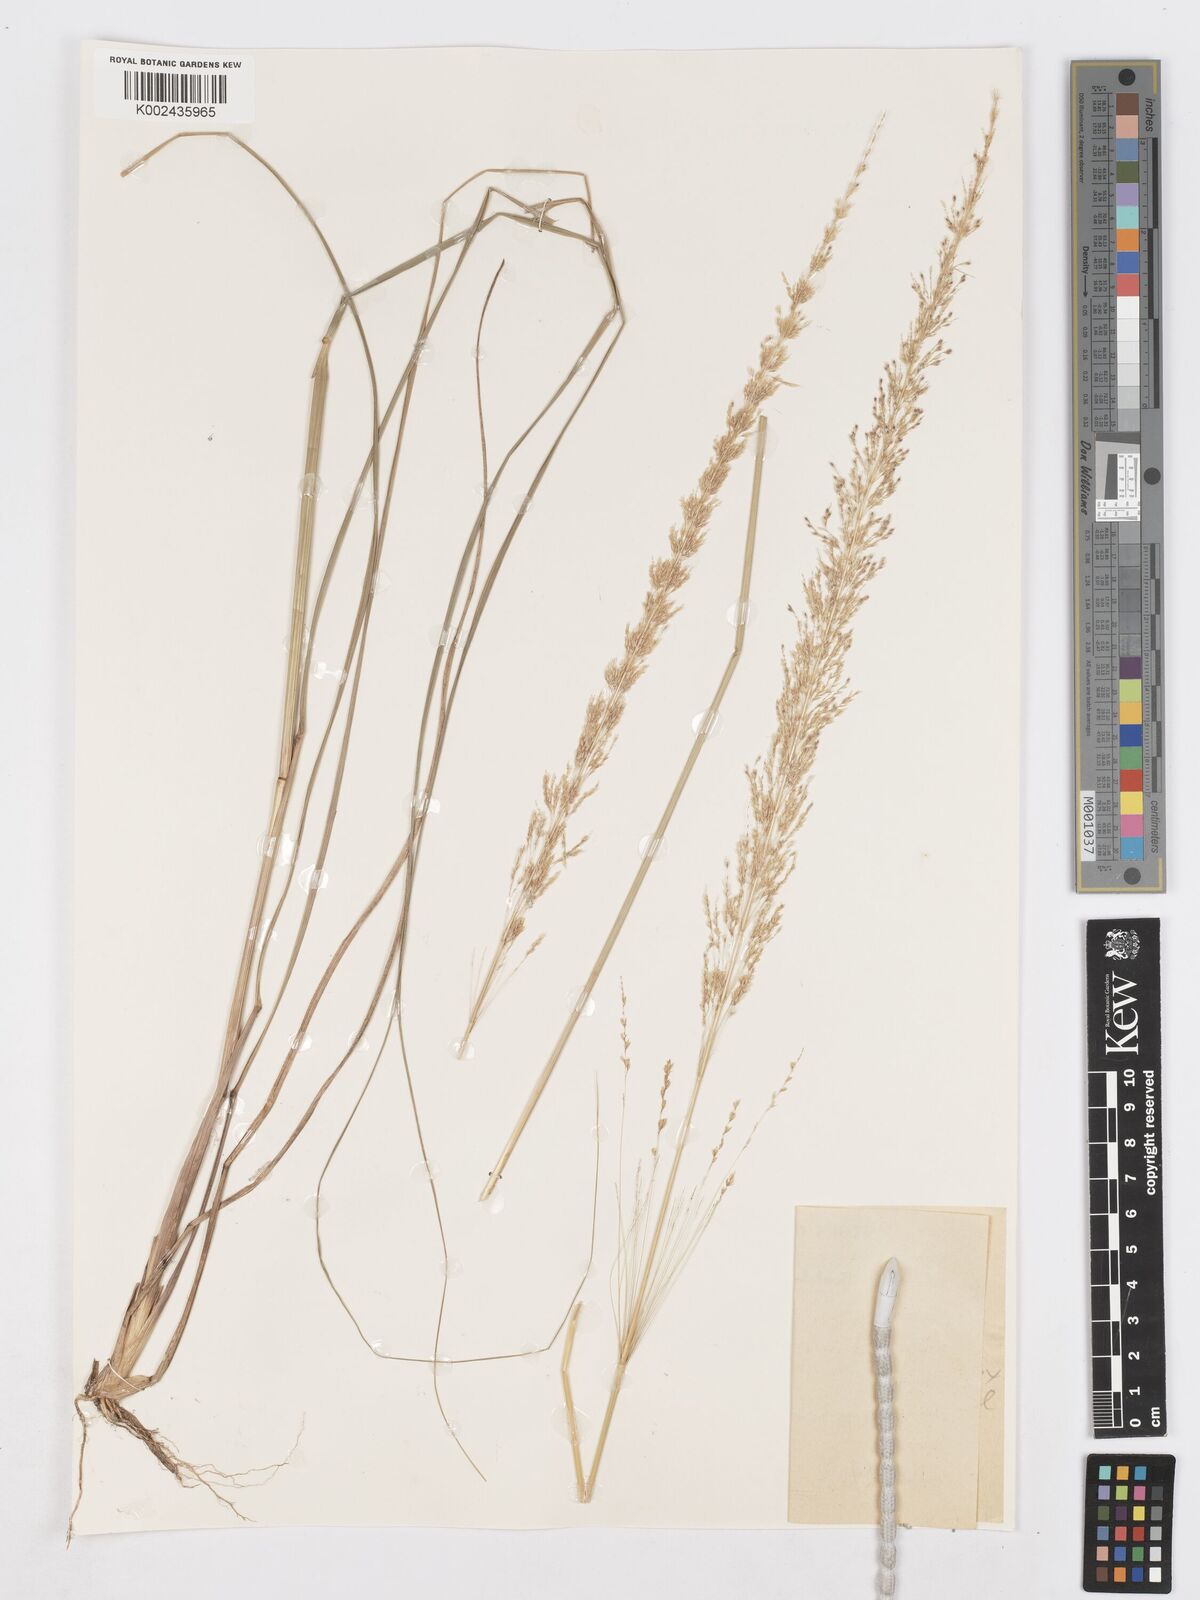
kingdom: Plantae
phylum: Tracheophyta
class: Liliopsida
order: Poales
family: Poaceae
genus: Sporobolus
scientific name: Sporobolus sanguineus
